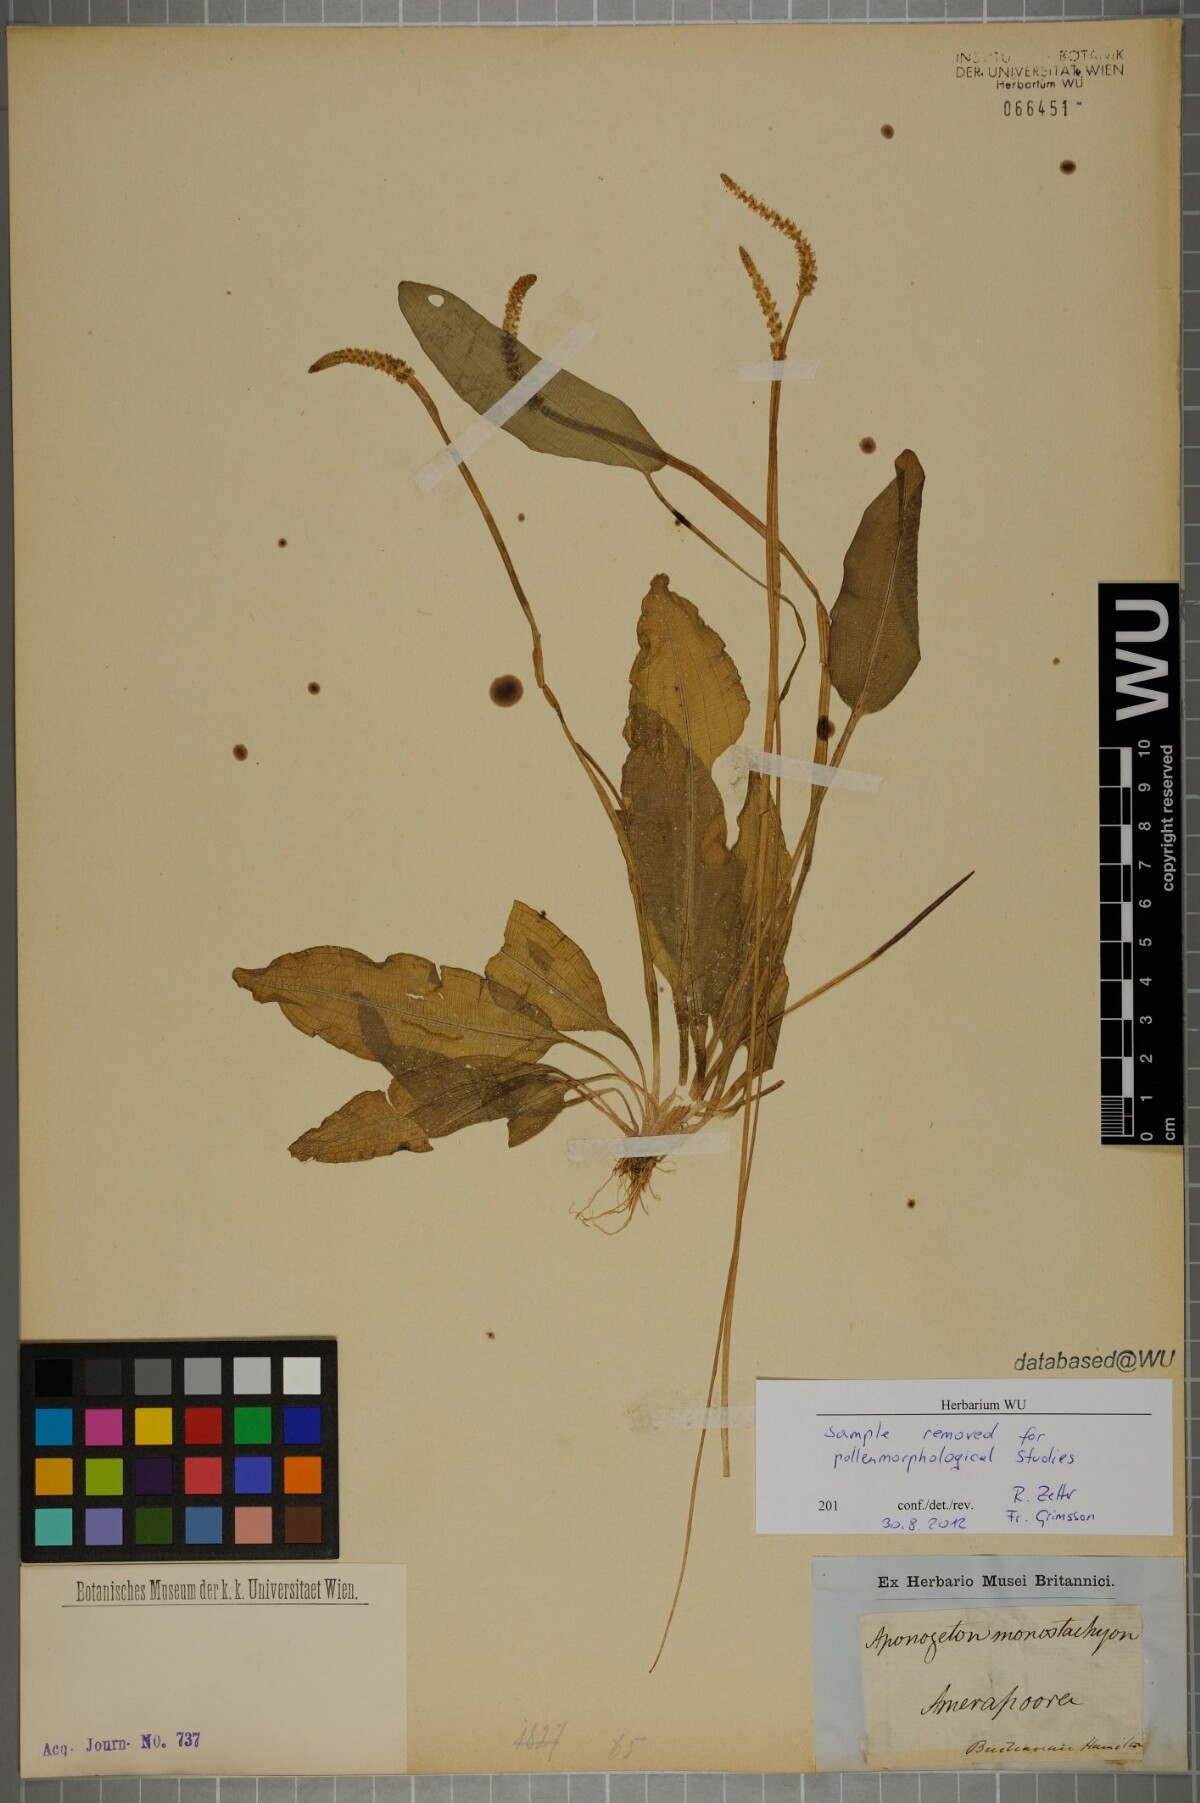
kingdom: Plantae
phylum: Tracheophyta
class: Liliopsida
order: Alismatales
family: Aponogetonaceae
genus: Aponogeton
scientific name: Aponogeton natans
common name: Drifting sword plant
